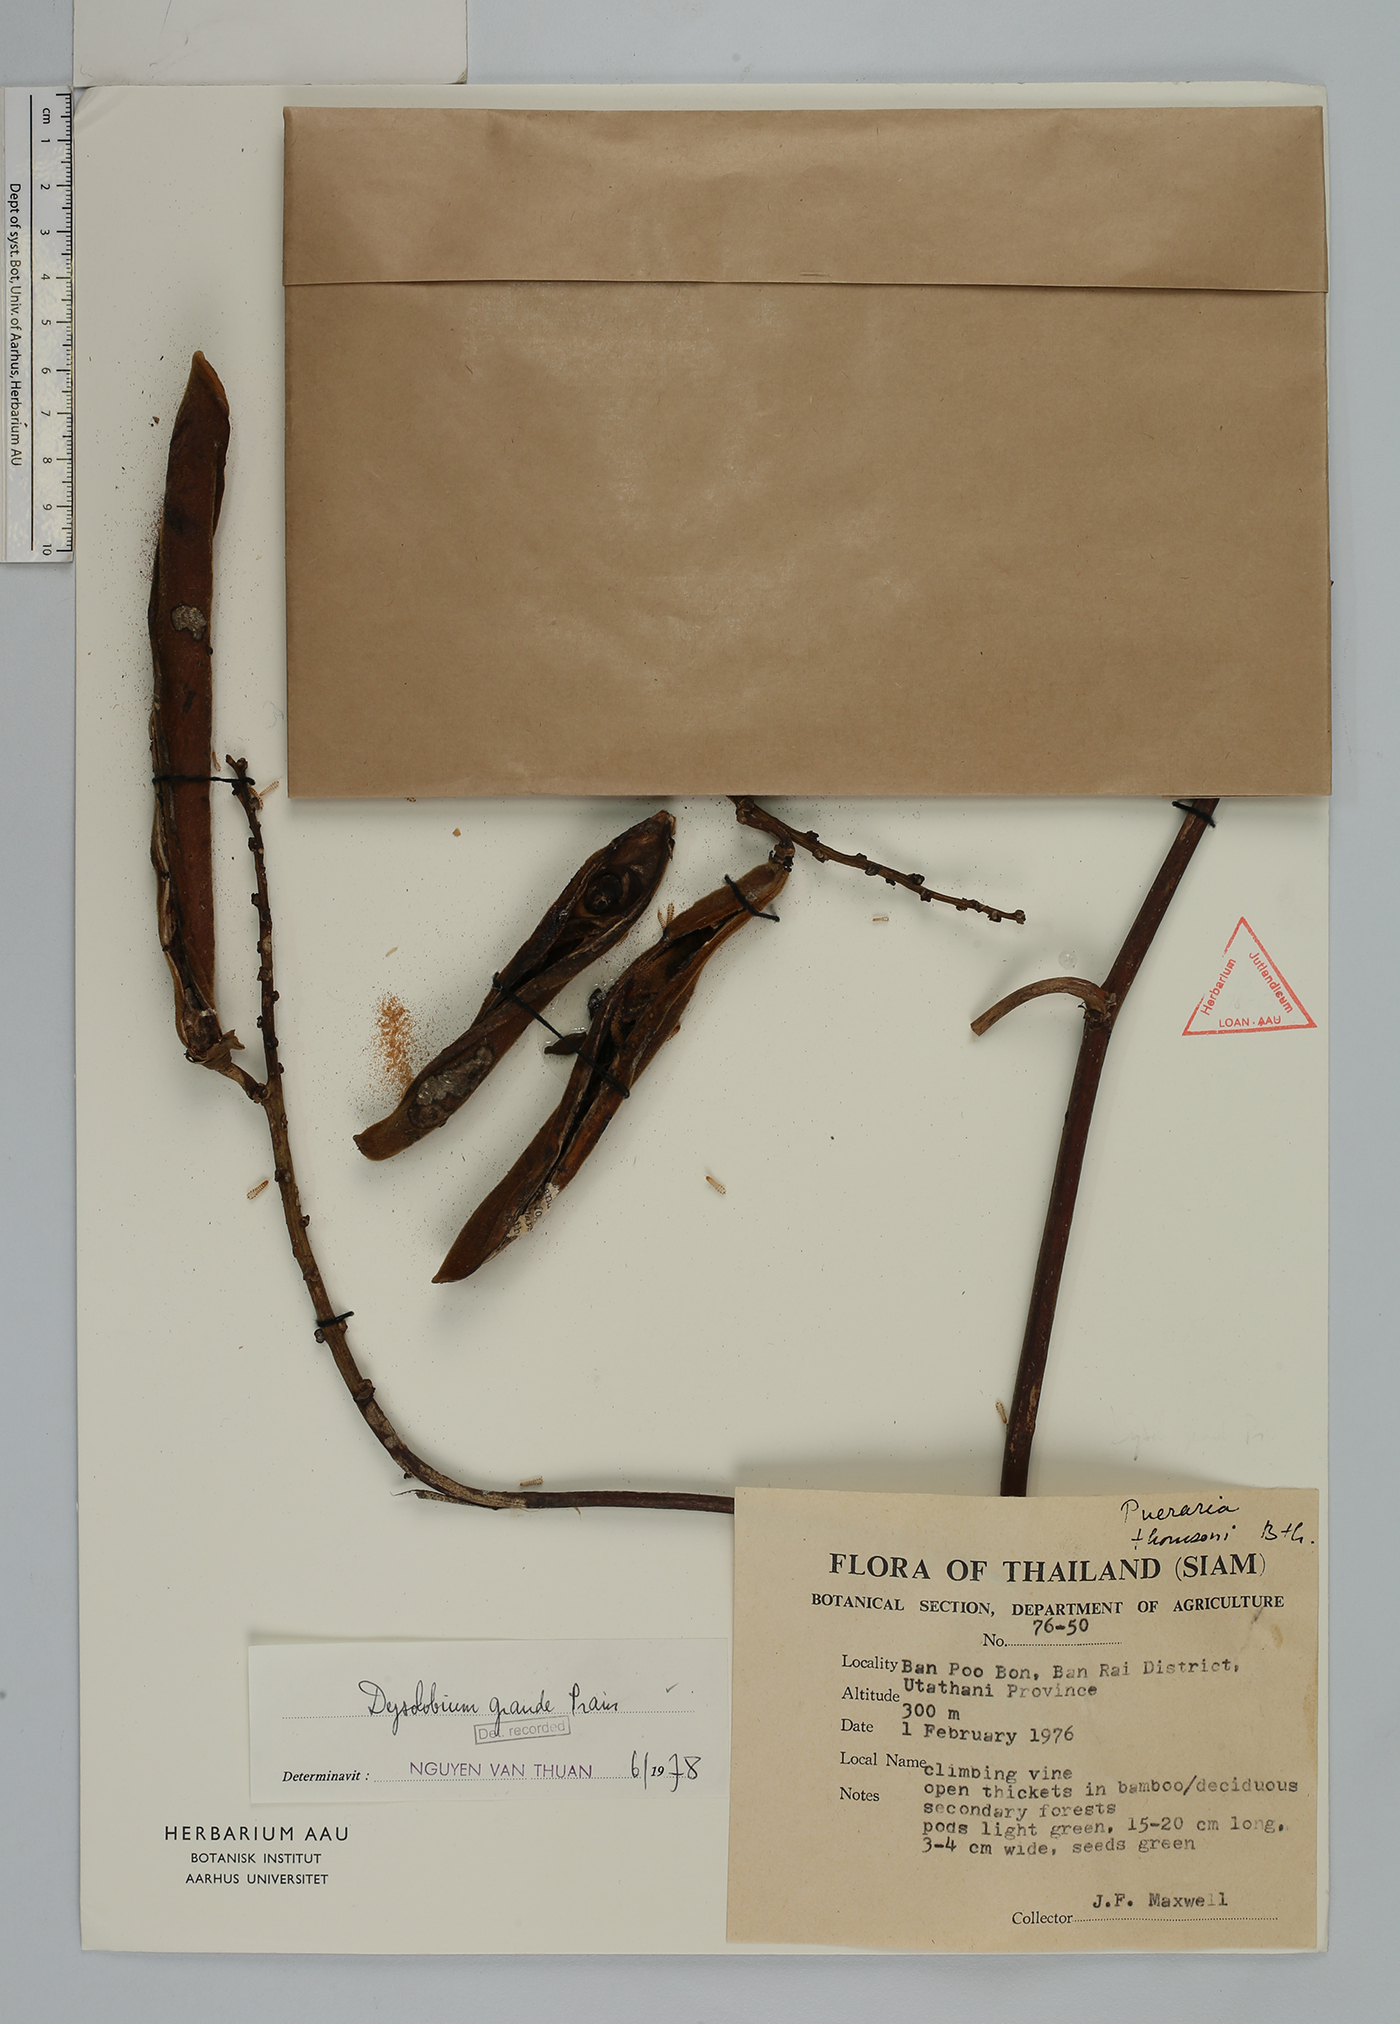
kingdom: Plantae
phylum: Tracheophyta
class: Magnoliopsida
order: Fabales
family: Fabaceae
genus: Dysolobium
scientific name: Dysolobium grande
